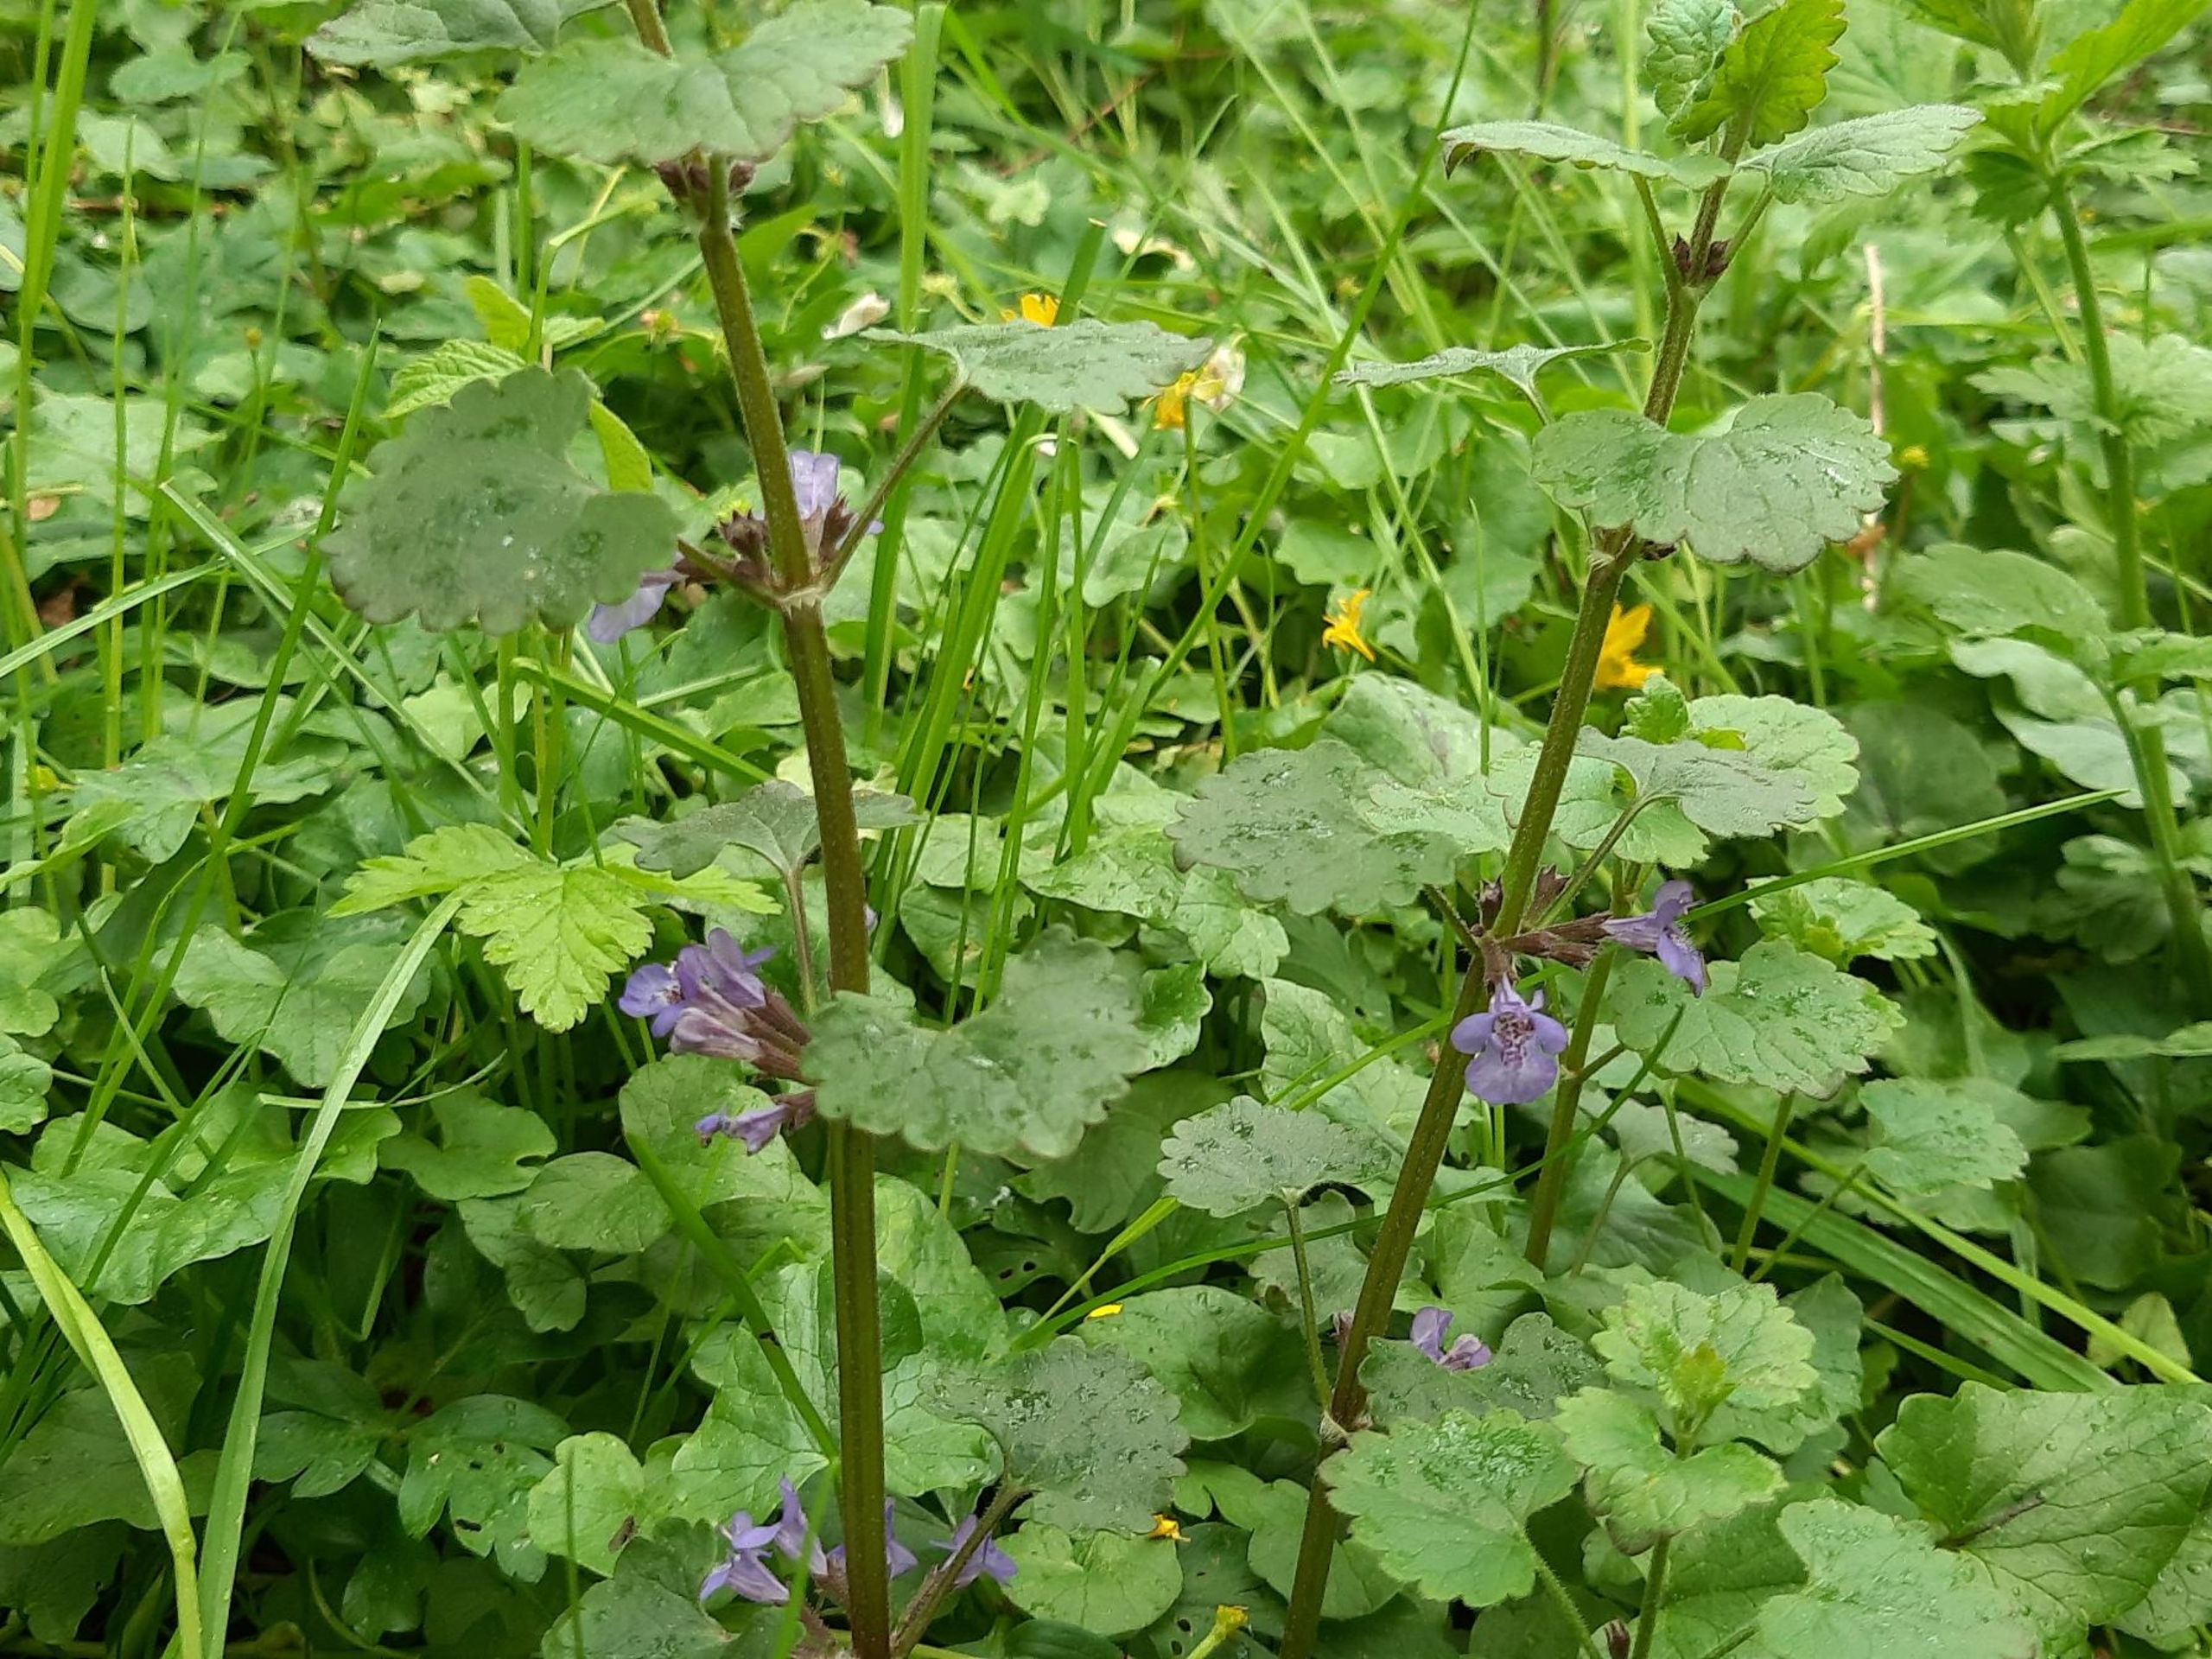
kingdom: Plantae
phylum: Tracheophyta
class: Magnoliopsida
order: Lamiales
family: Lamiaceae
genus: Glechoma
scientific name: Glechoma hederacea
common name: Korsknap
